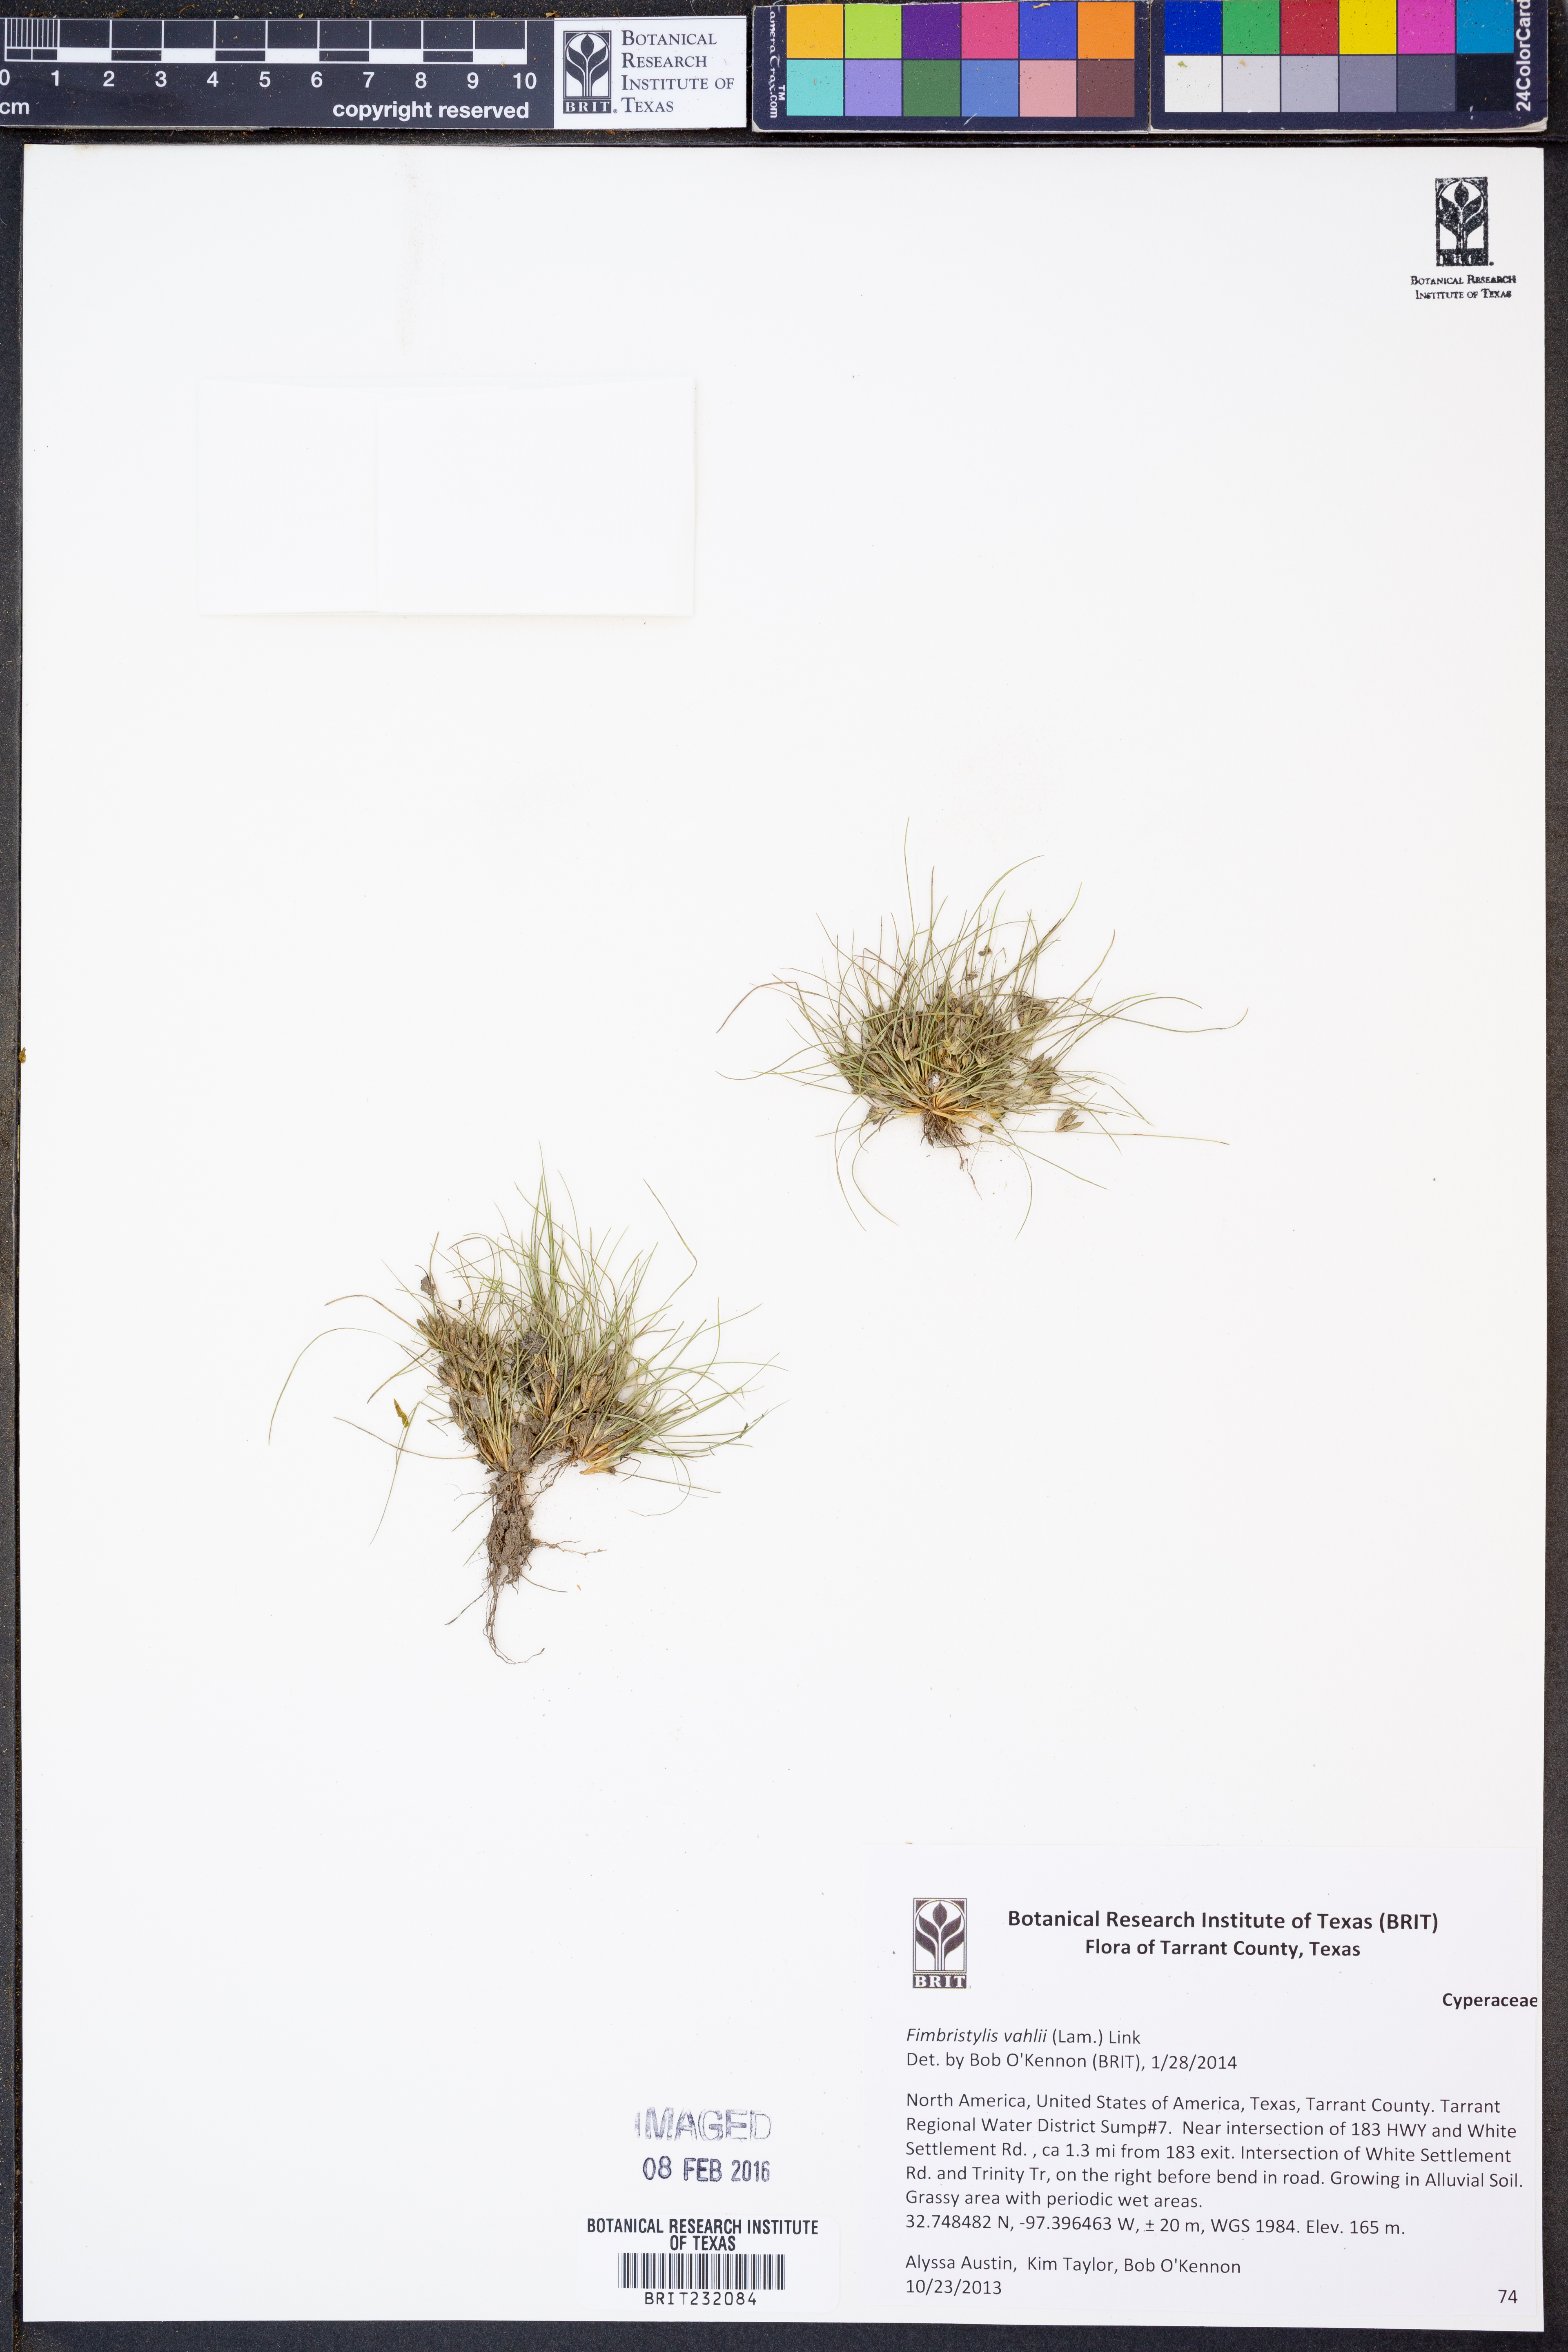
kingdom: Plantae
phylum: Tracheophyta
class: Liliopsida
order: Poales
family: Cyperaceae
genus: Fimbristylis
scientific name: Fimbristylis vahlii
